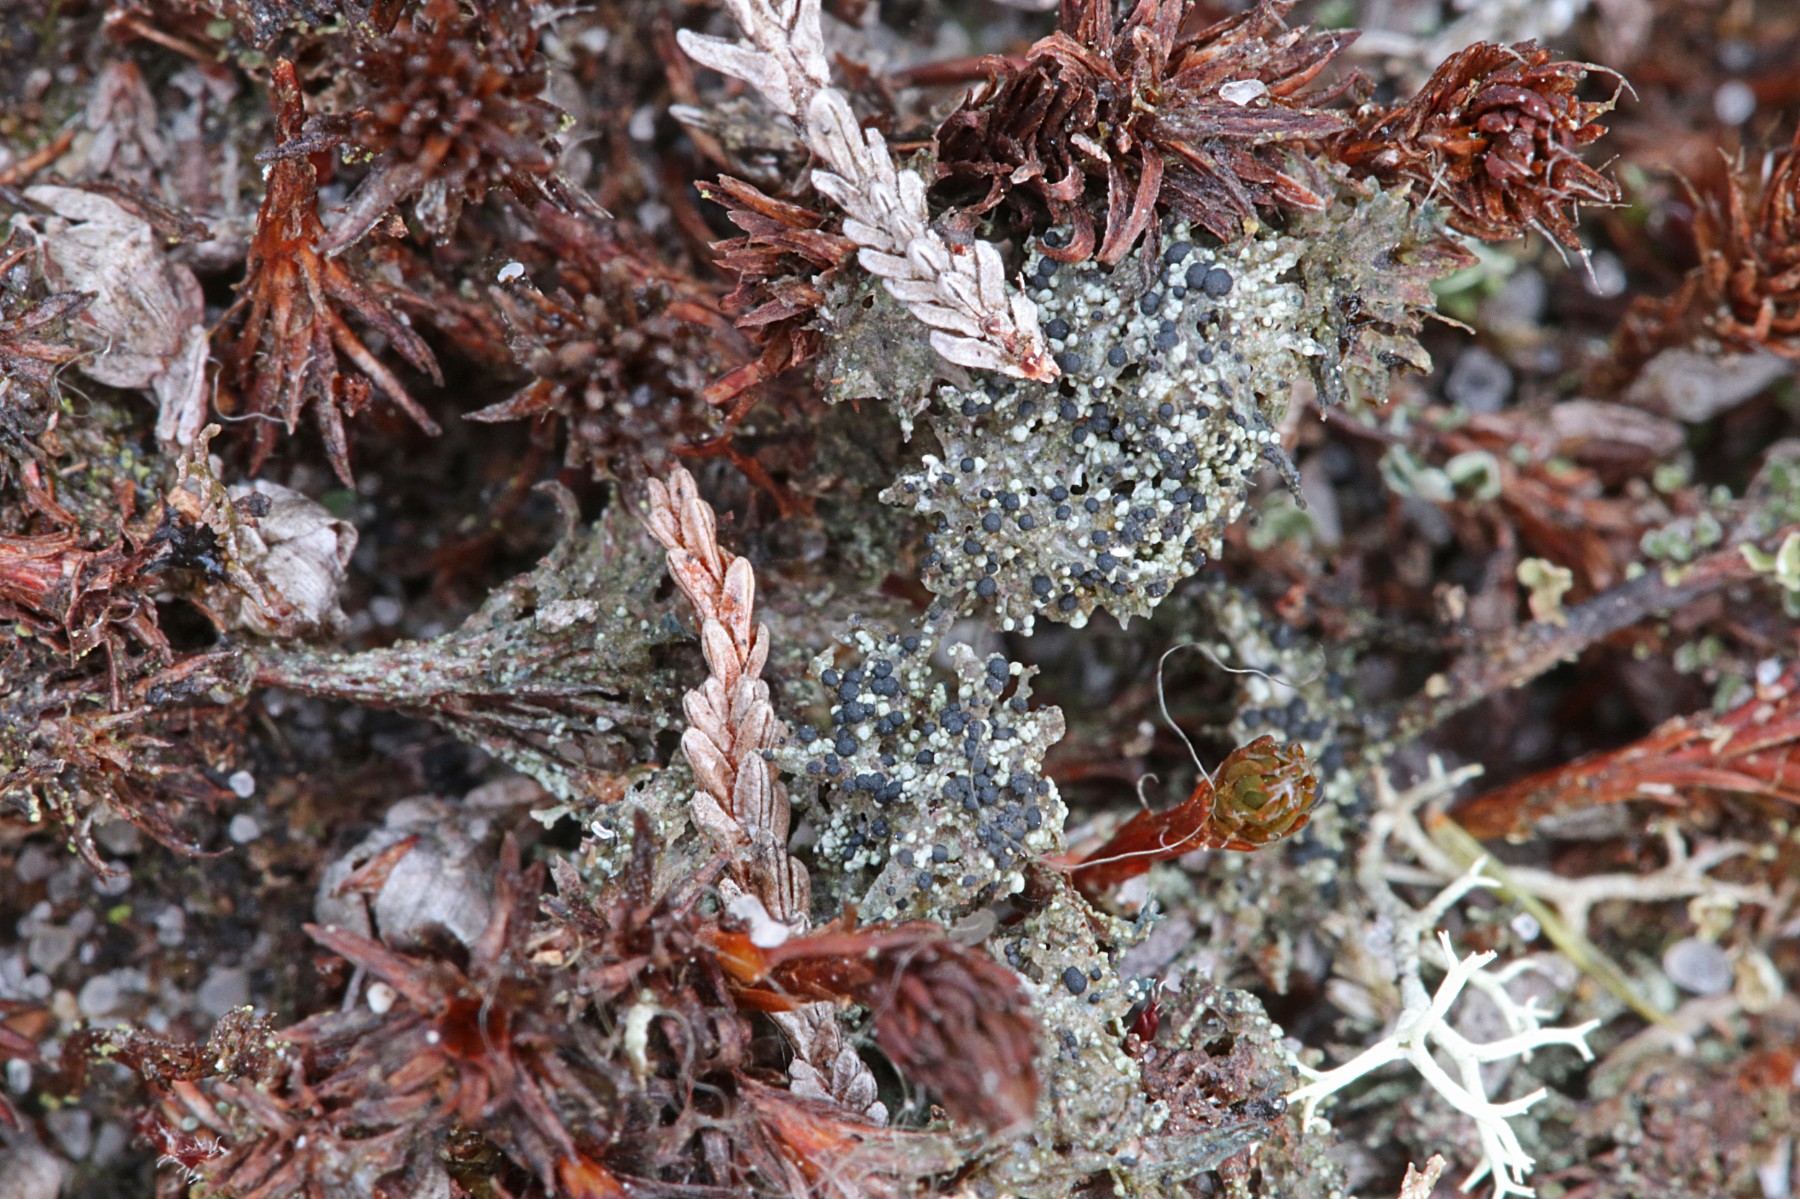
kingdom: Fungi
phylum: Ascomycota
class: Lecanoromycetes
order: Lecanorales
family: Byssolomataceae
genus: Micarea
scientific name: Micarea lignaria
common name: tørve-knaplav
